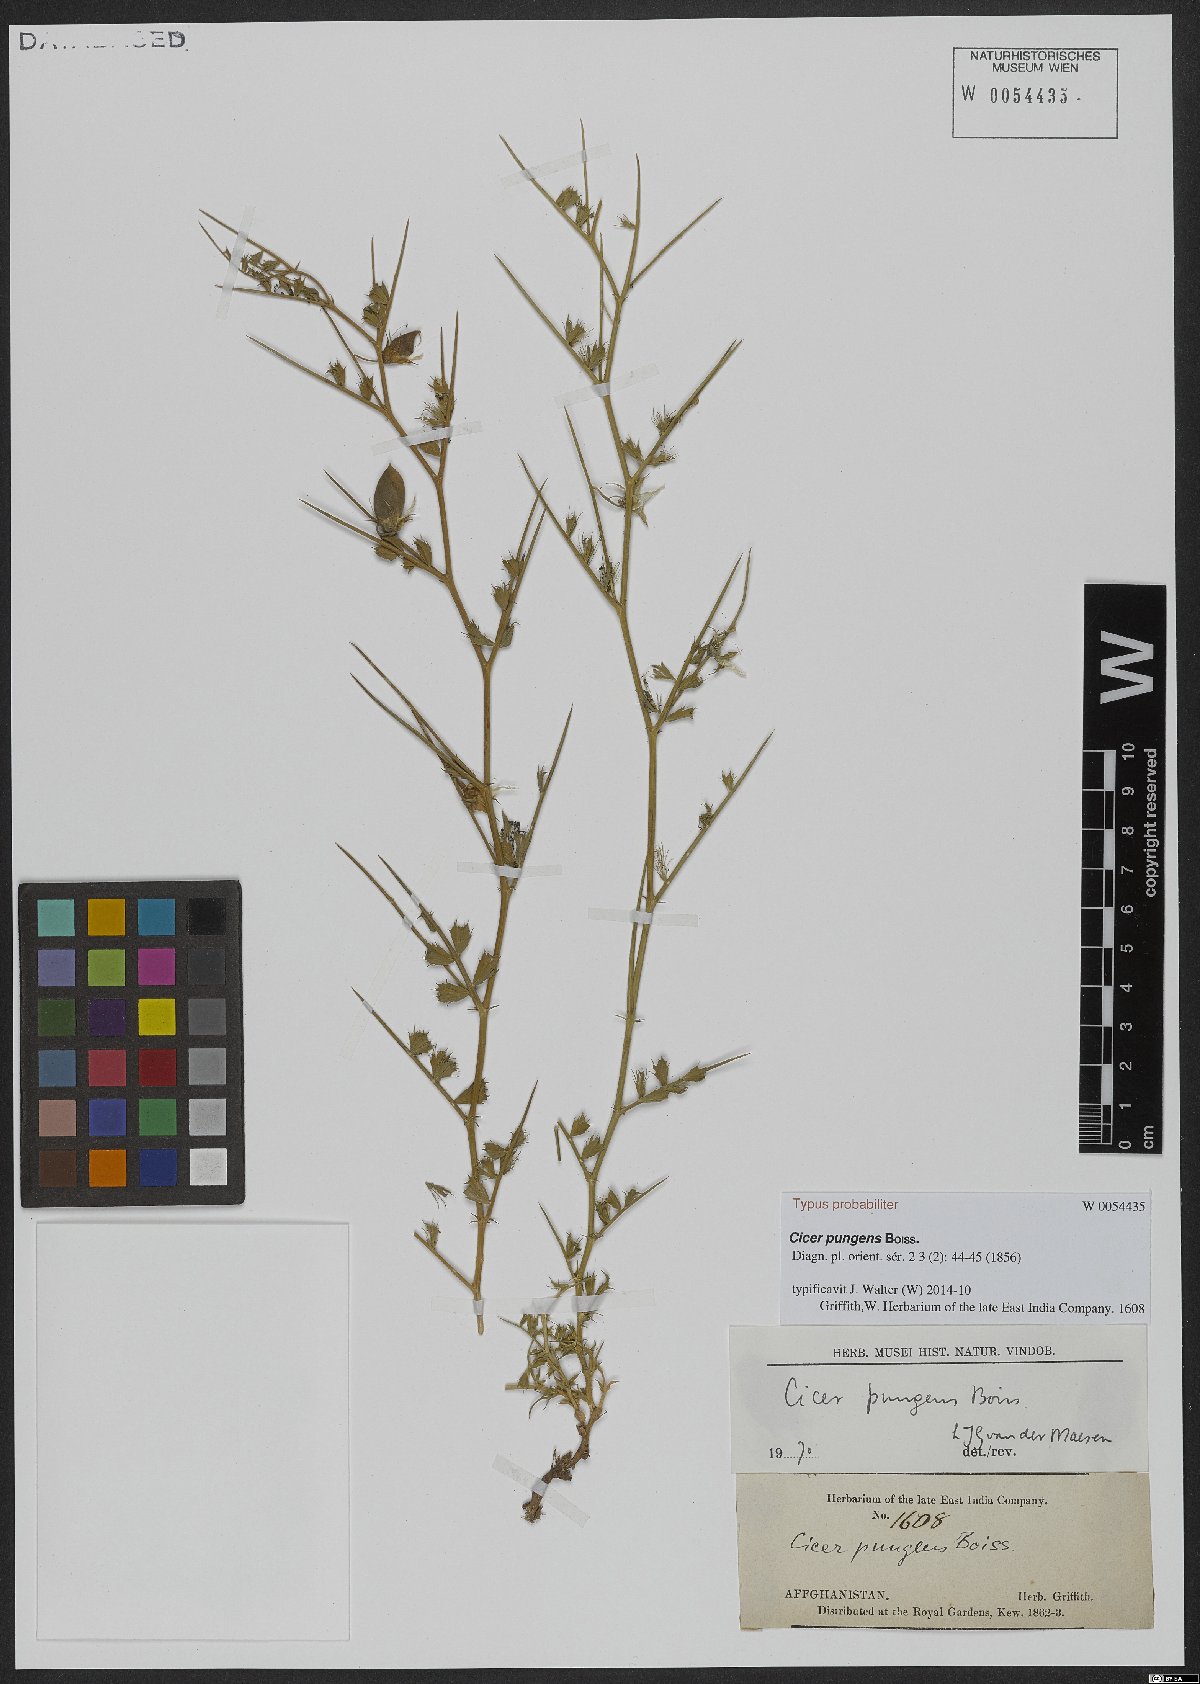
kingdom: Plantae
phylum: Tracheophyta
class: Magnoliopsida
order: Fabales
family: Fabaceae
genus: Cicer
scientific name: Cicer pungens
